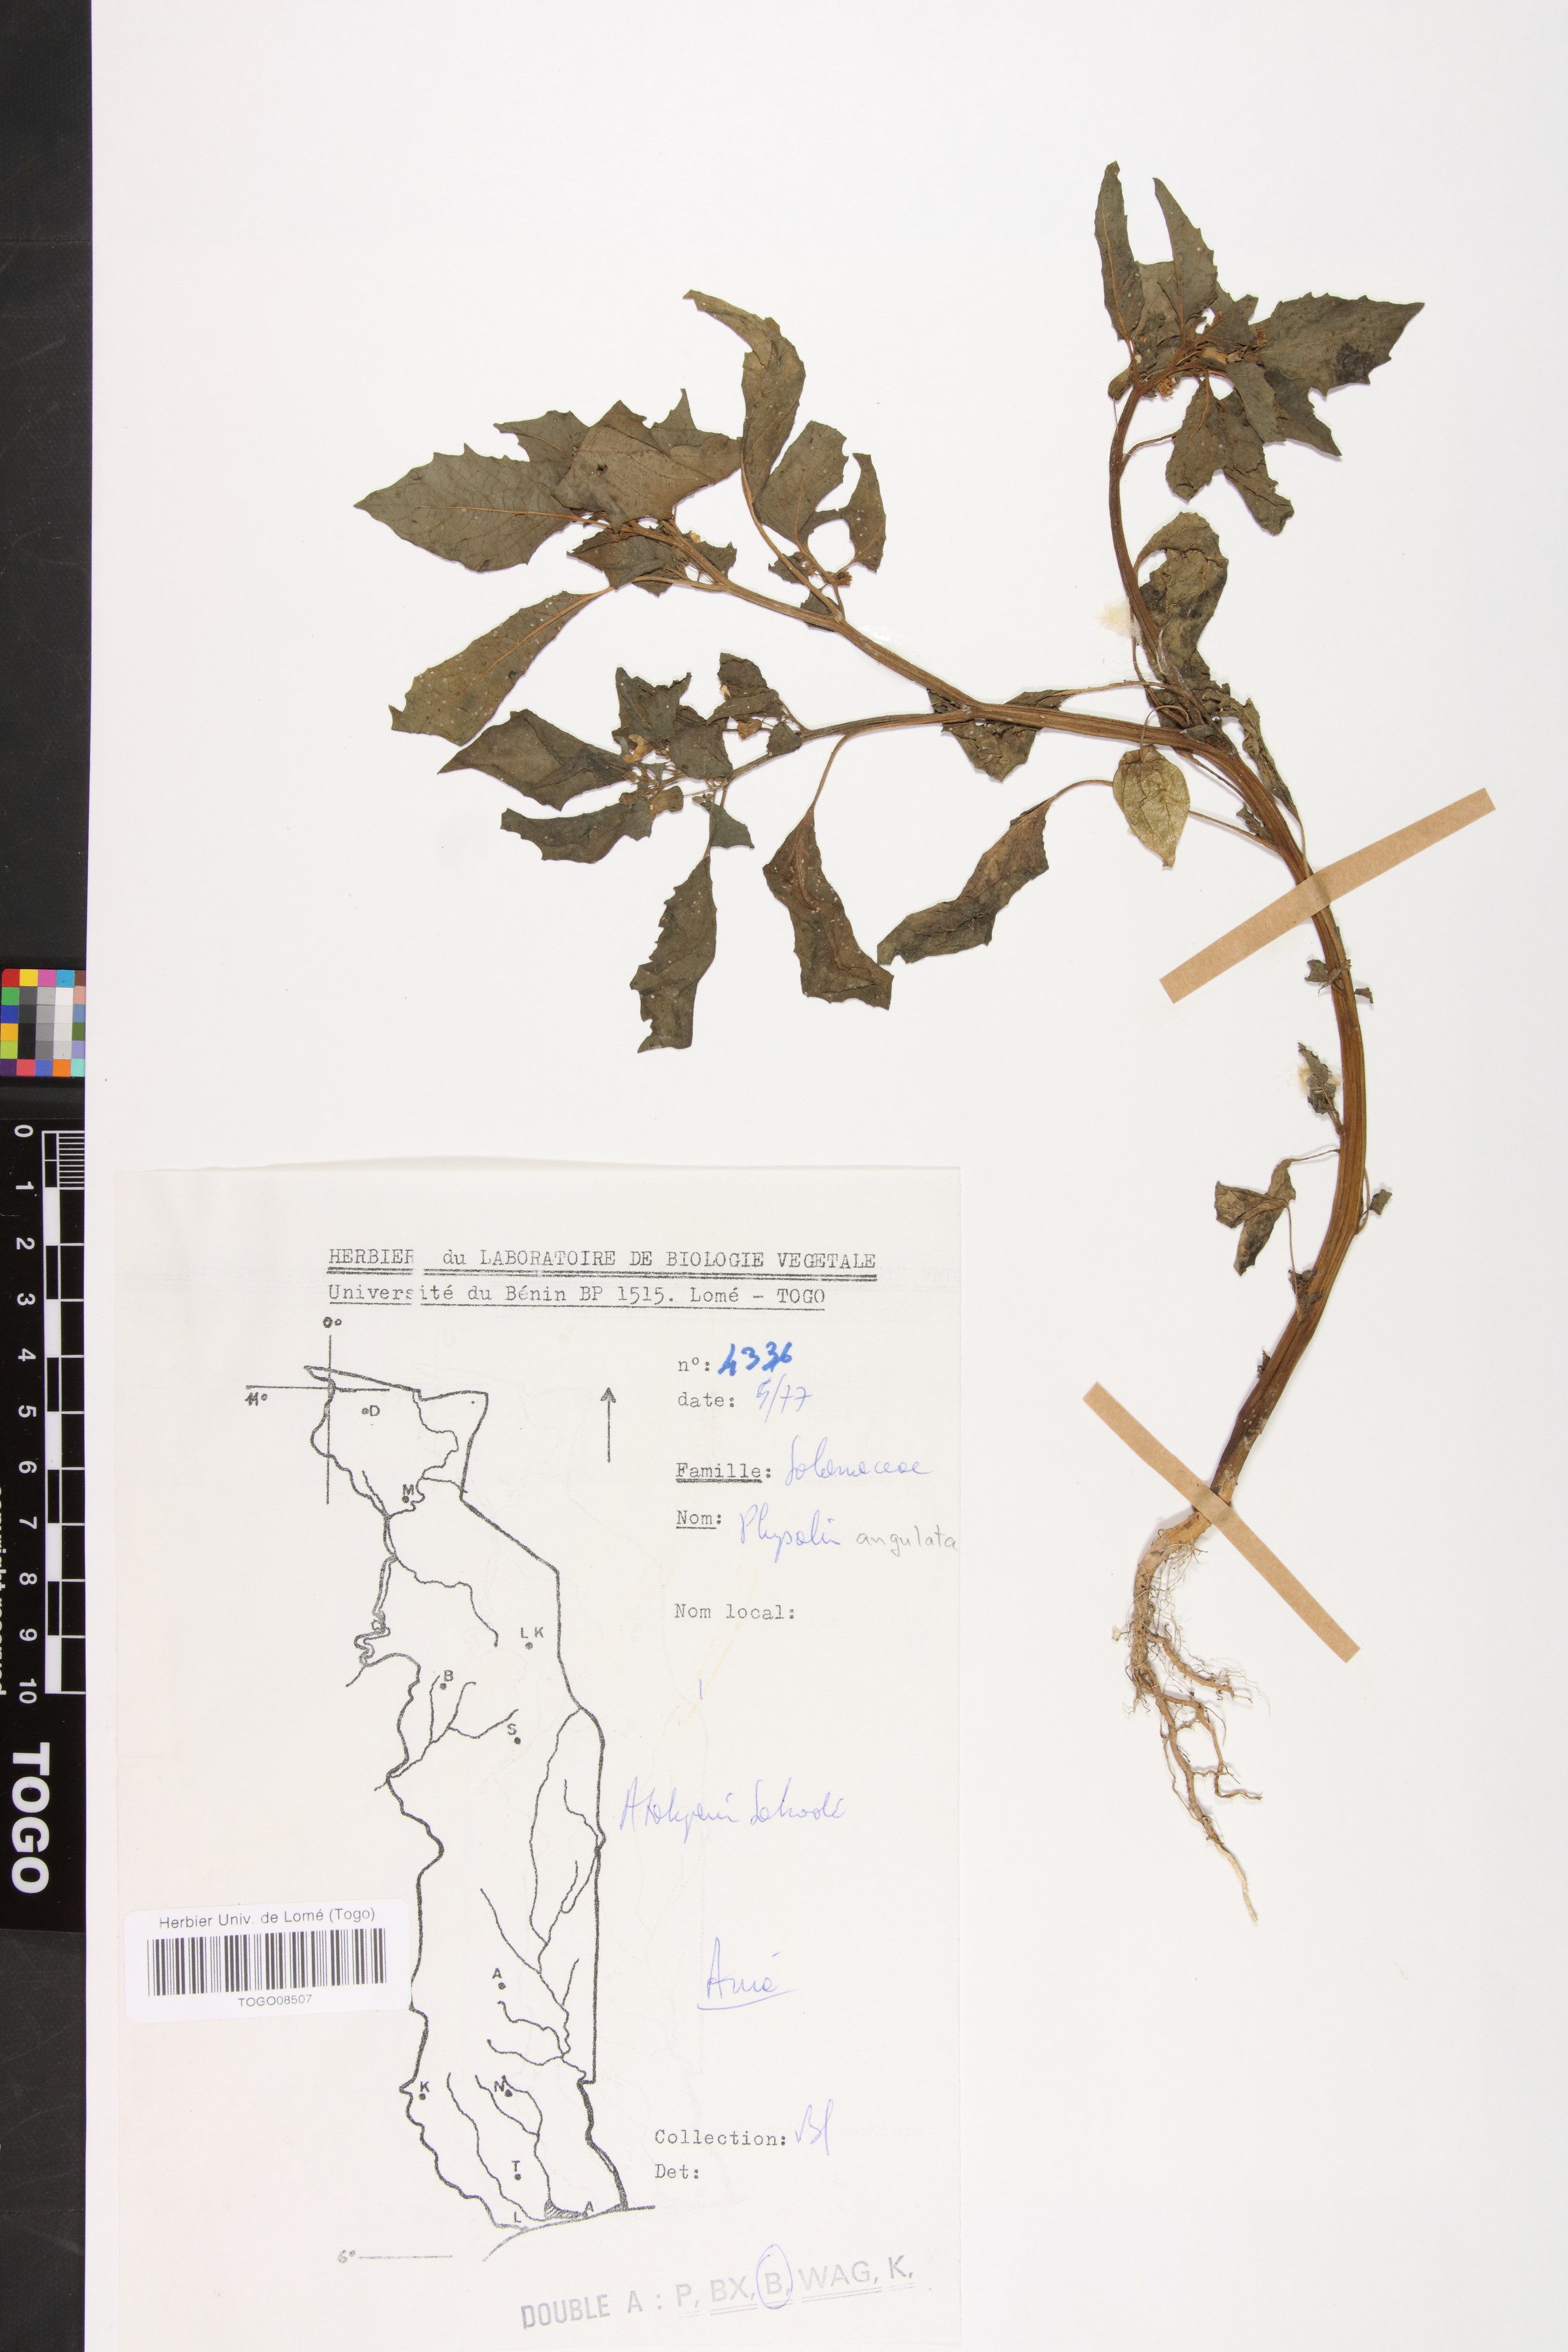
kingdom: Plantae
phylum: Tracheophyta
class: Magnoliopsida
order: Solanales
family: Solanaceae
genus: Physalis
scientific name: Physalis angulata
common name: Angular winter-cherry
